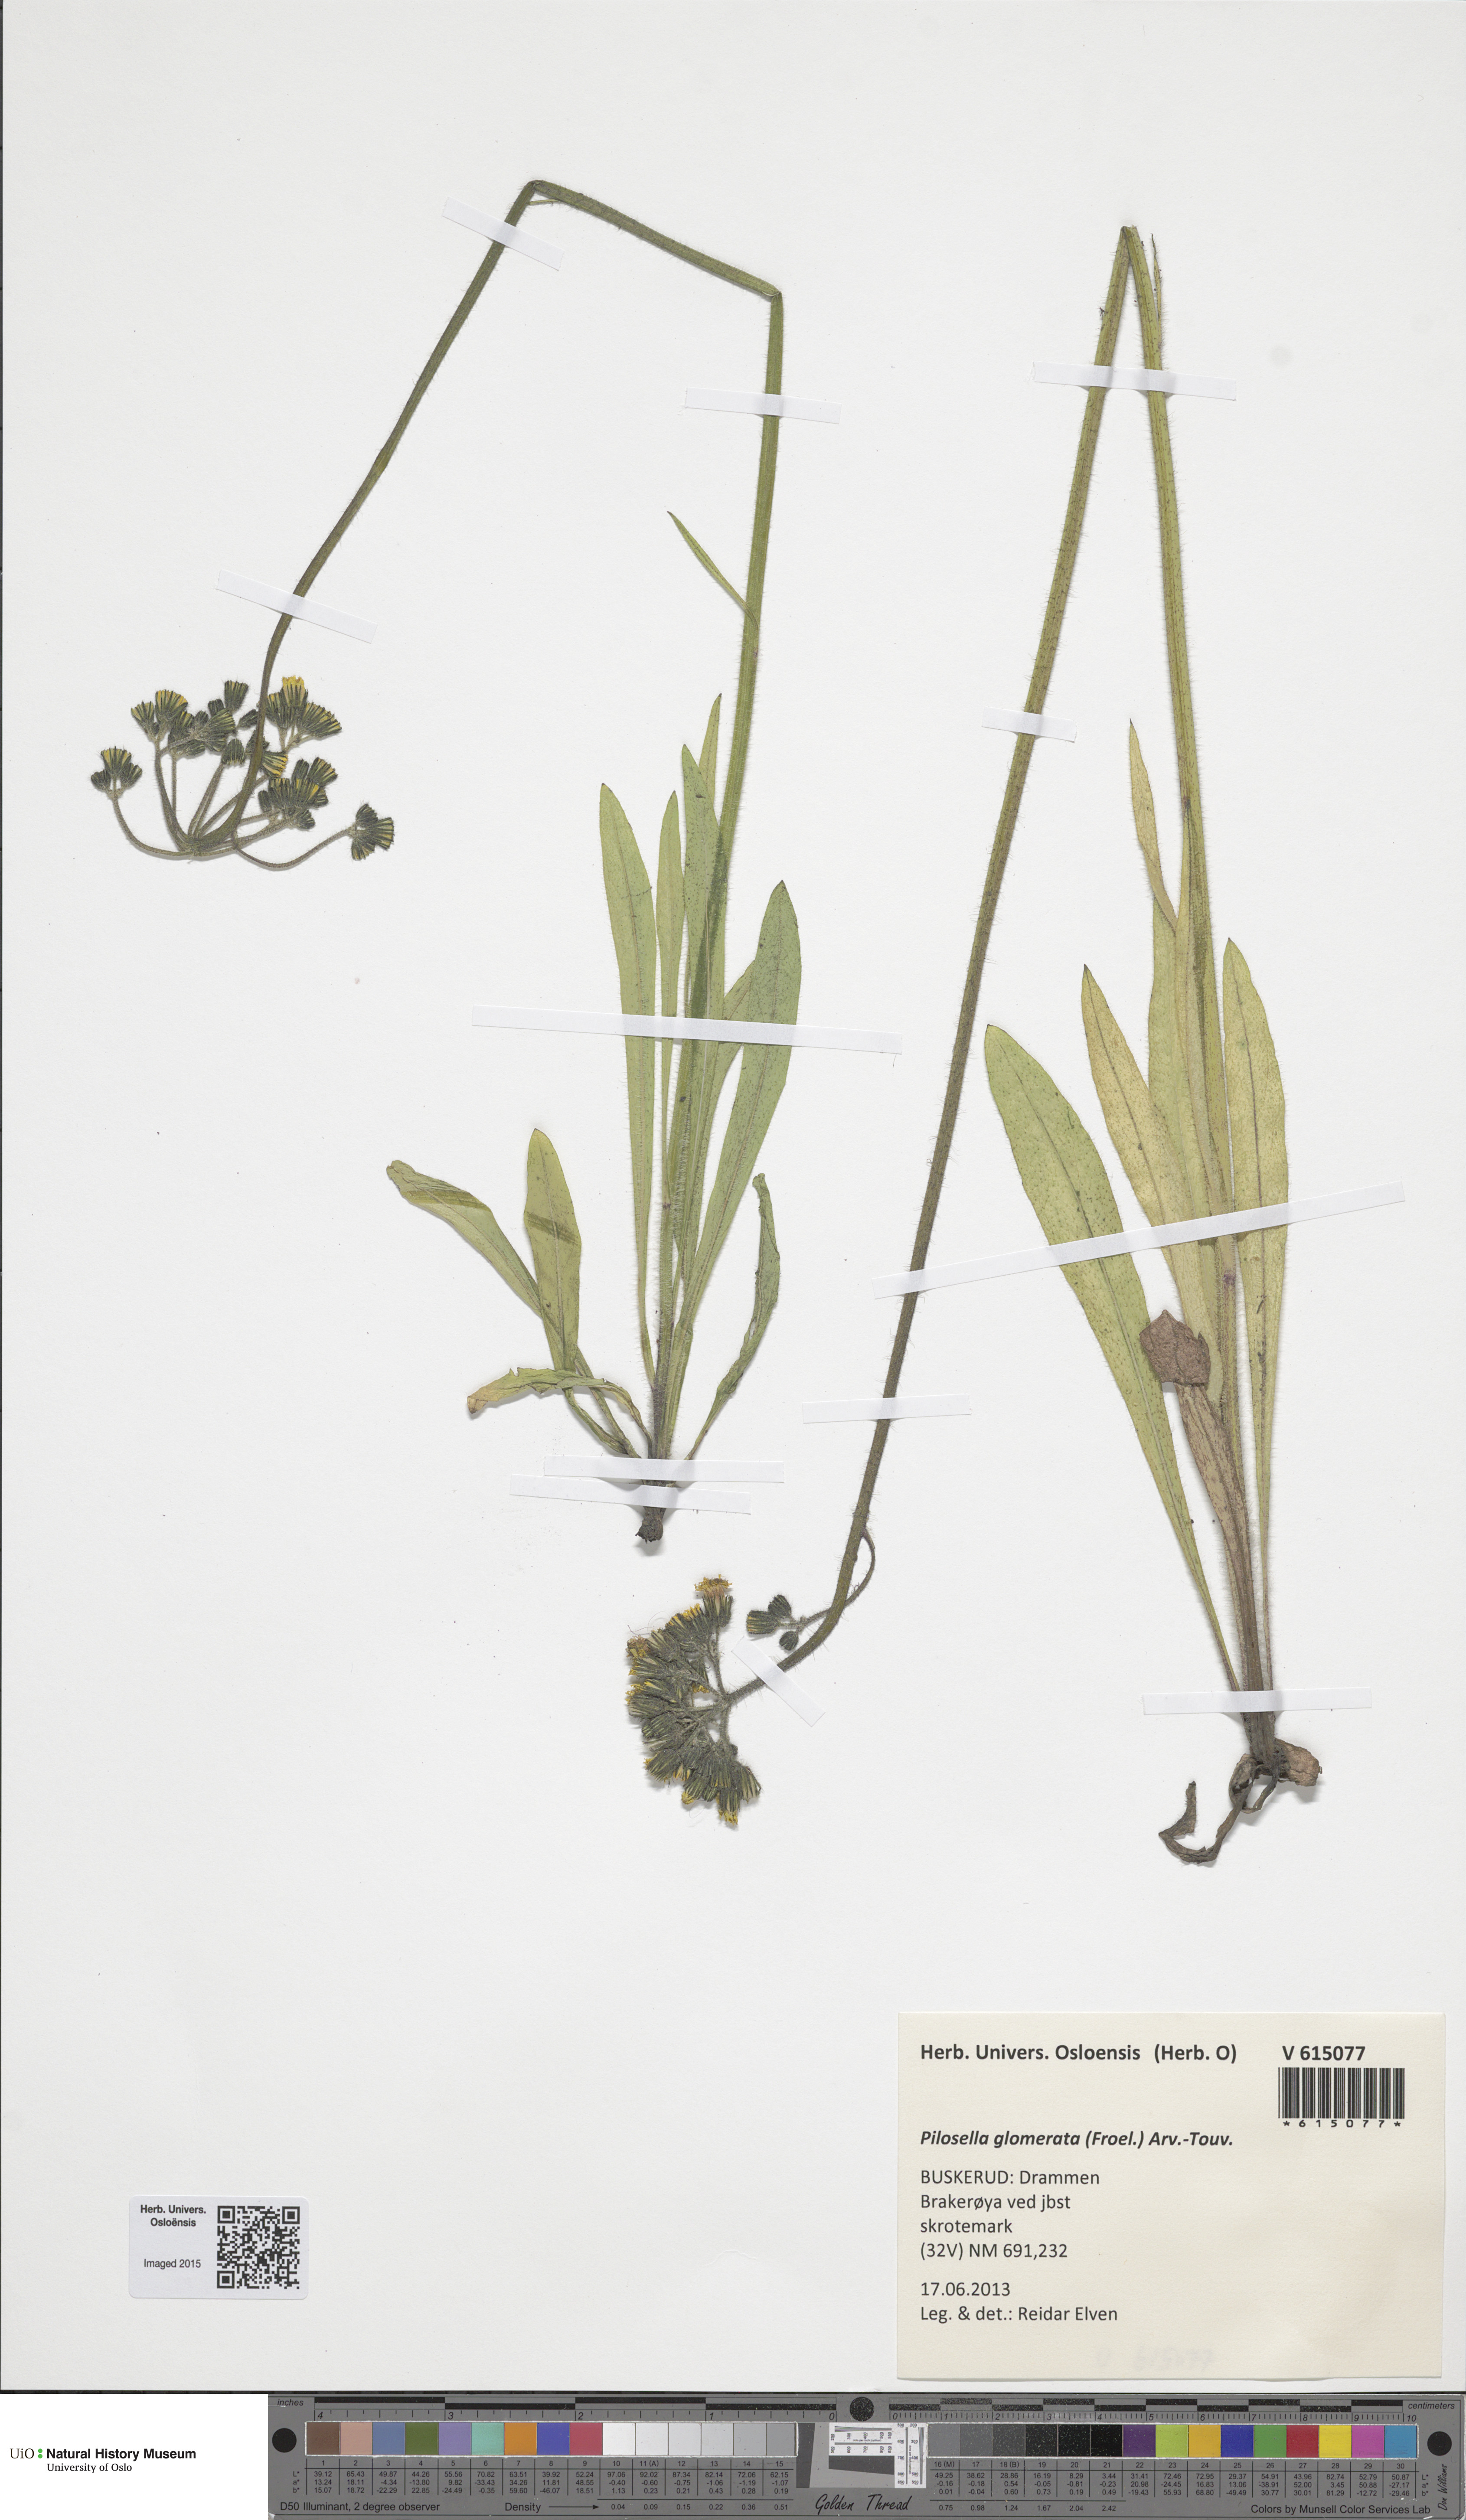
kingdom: Plantae
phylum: Tracheophyta
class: Magnoliopsida
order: Asterales
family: Asteraceae
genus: Pilosella
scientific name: Pilosella glomerata
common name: Queen devil hawkweed
